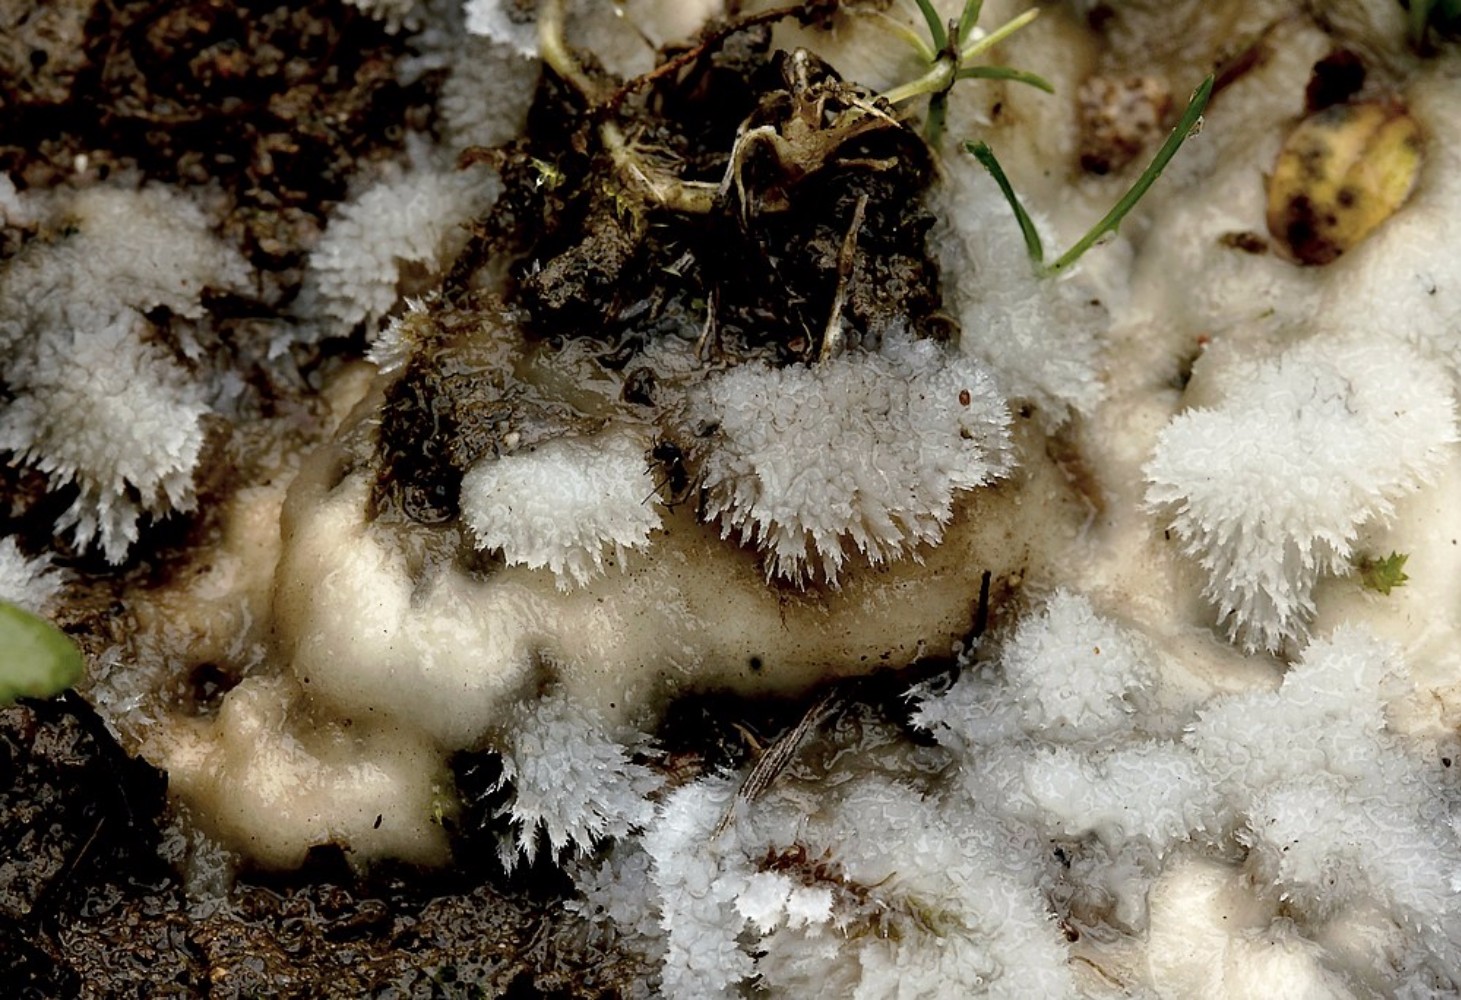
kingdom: Fungi
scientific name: Fungi
